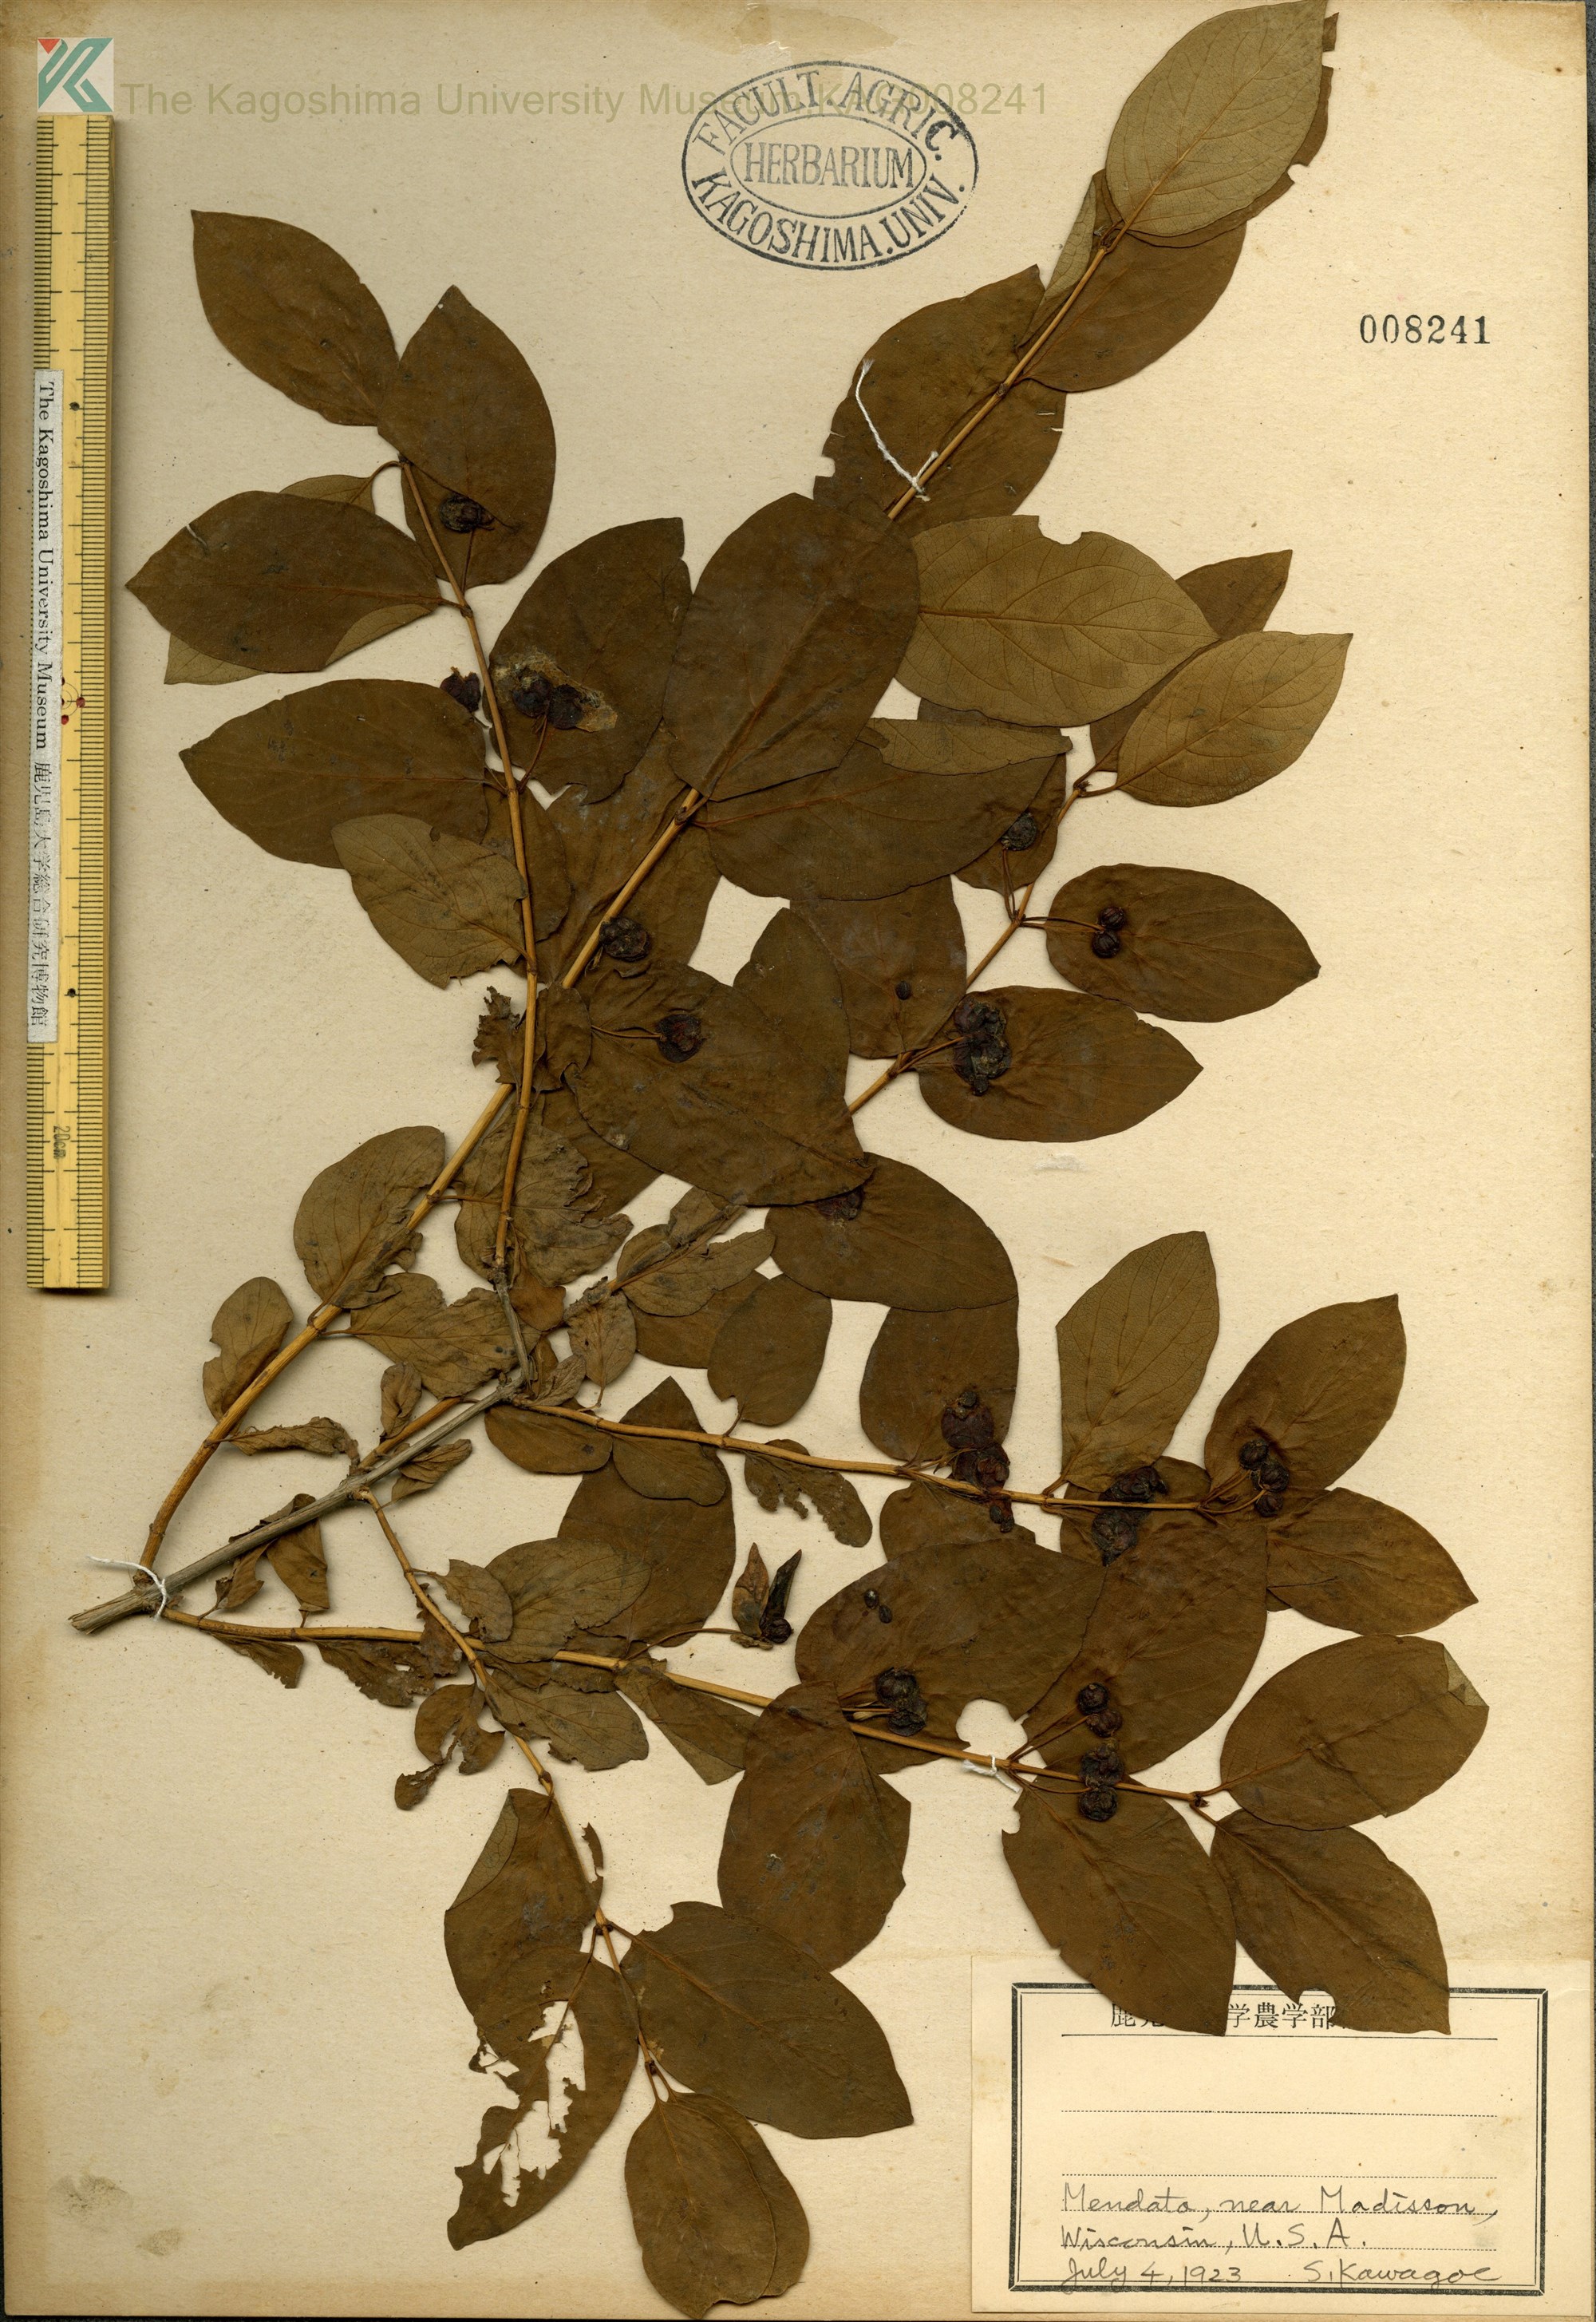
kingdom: Plantae
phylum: Tracheophyta
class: Magnoliopsida
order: Dipsacales
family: Caprifoliaceae
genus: Lonicera
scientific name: Lonicera utahensis
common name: Utah honeysuckle
